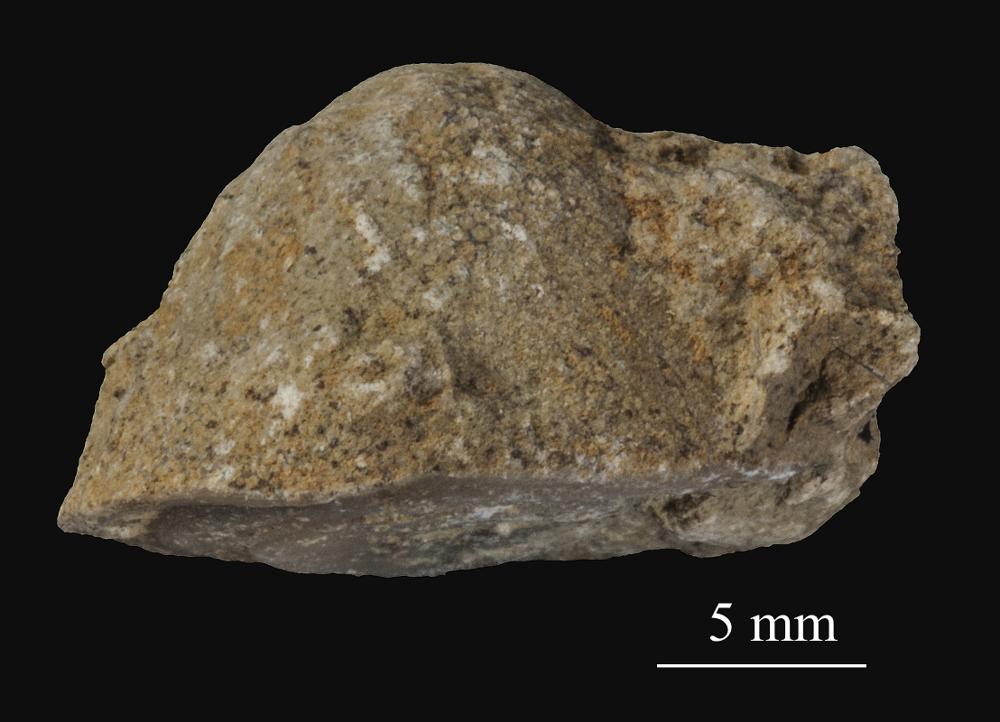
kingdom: Animalia
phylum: Bryozoa
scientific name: Bryozoa
